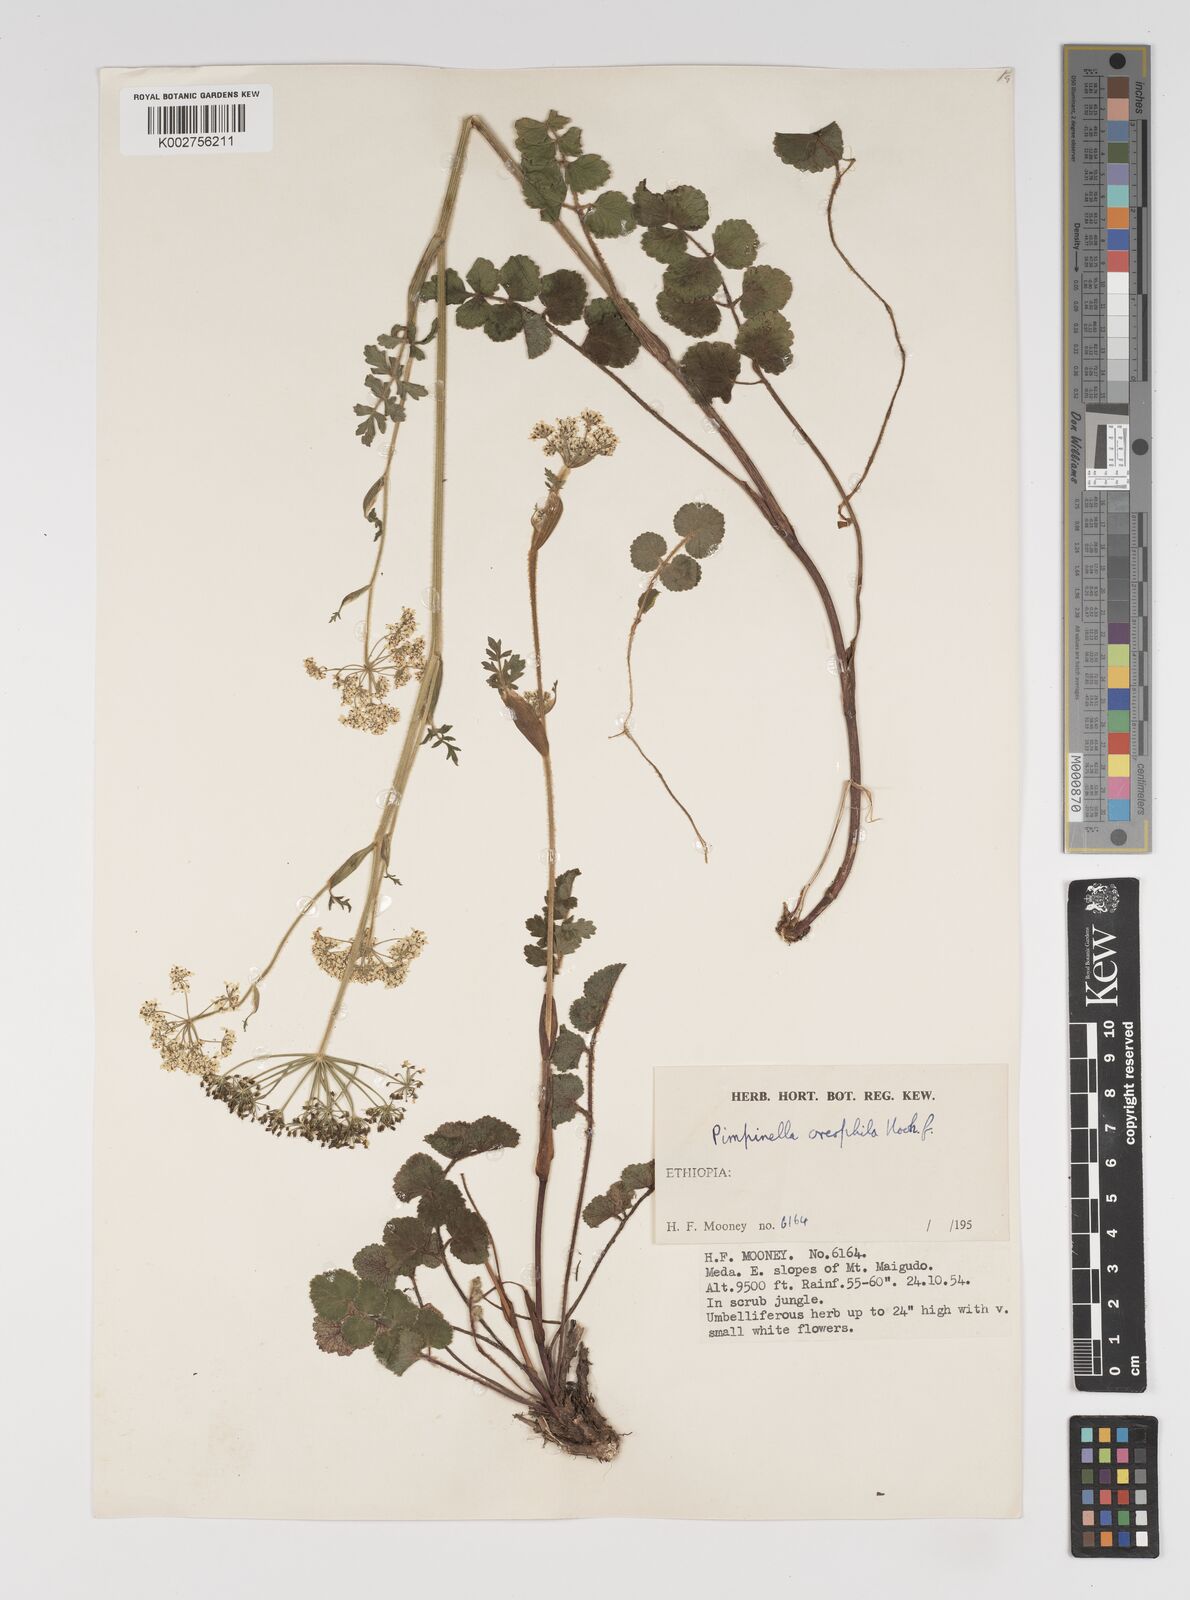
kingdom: Plantae
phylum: Tracheophyta
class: Magnoliopsida
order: Apiales
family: Apiaceae
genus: Pimpinella
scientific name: Pimpinella oreophila
